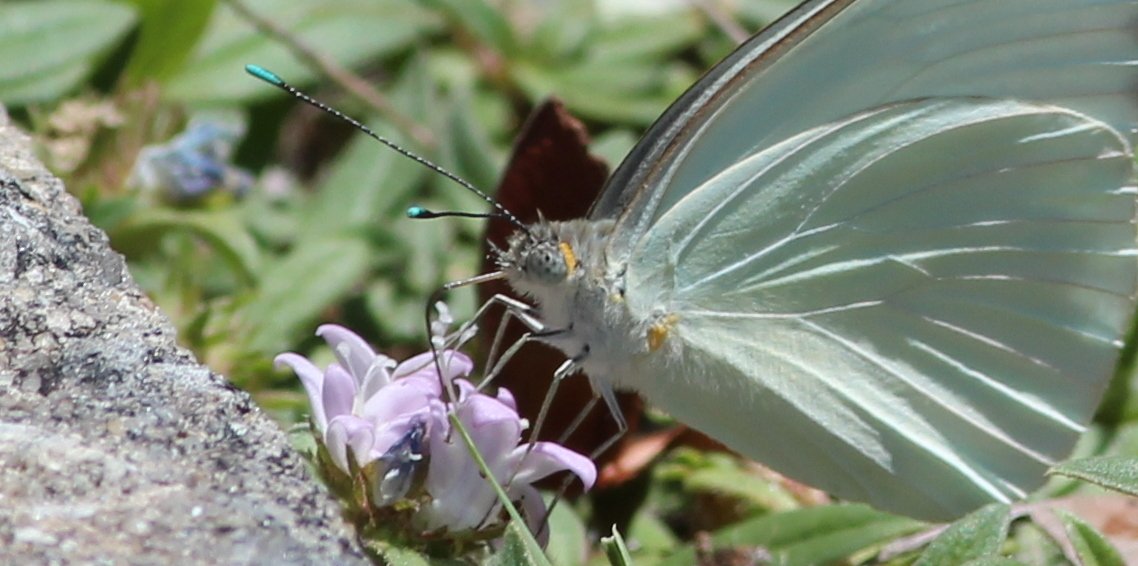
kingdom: Animalia
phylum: Arthropoda
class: Insecta
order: Lepidoptera
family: Pieridae
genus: Ascia
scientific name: Ascia monuste
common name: Great Southern White
